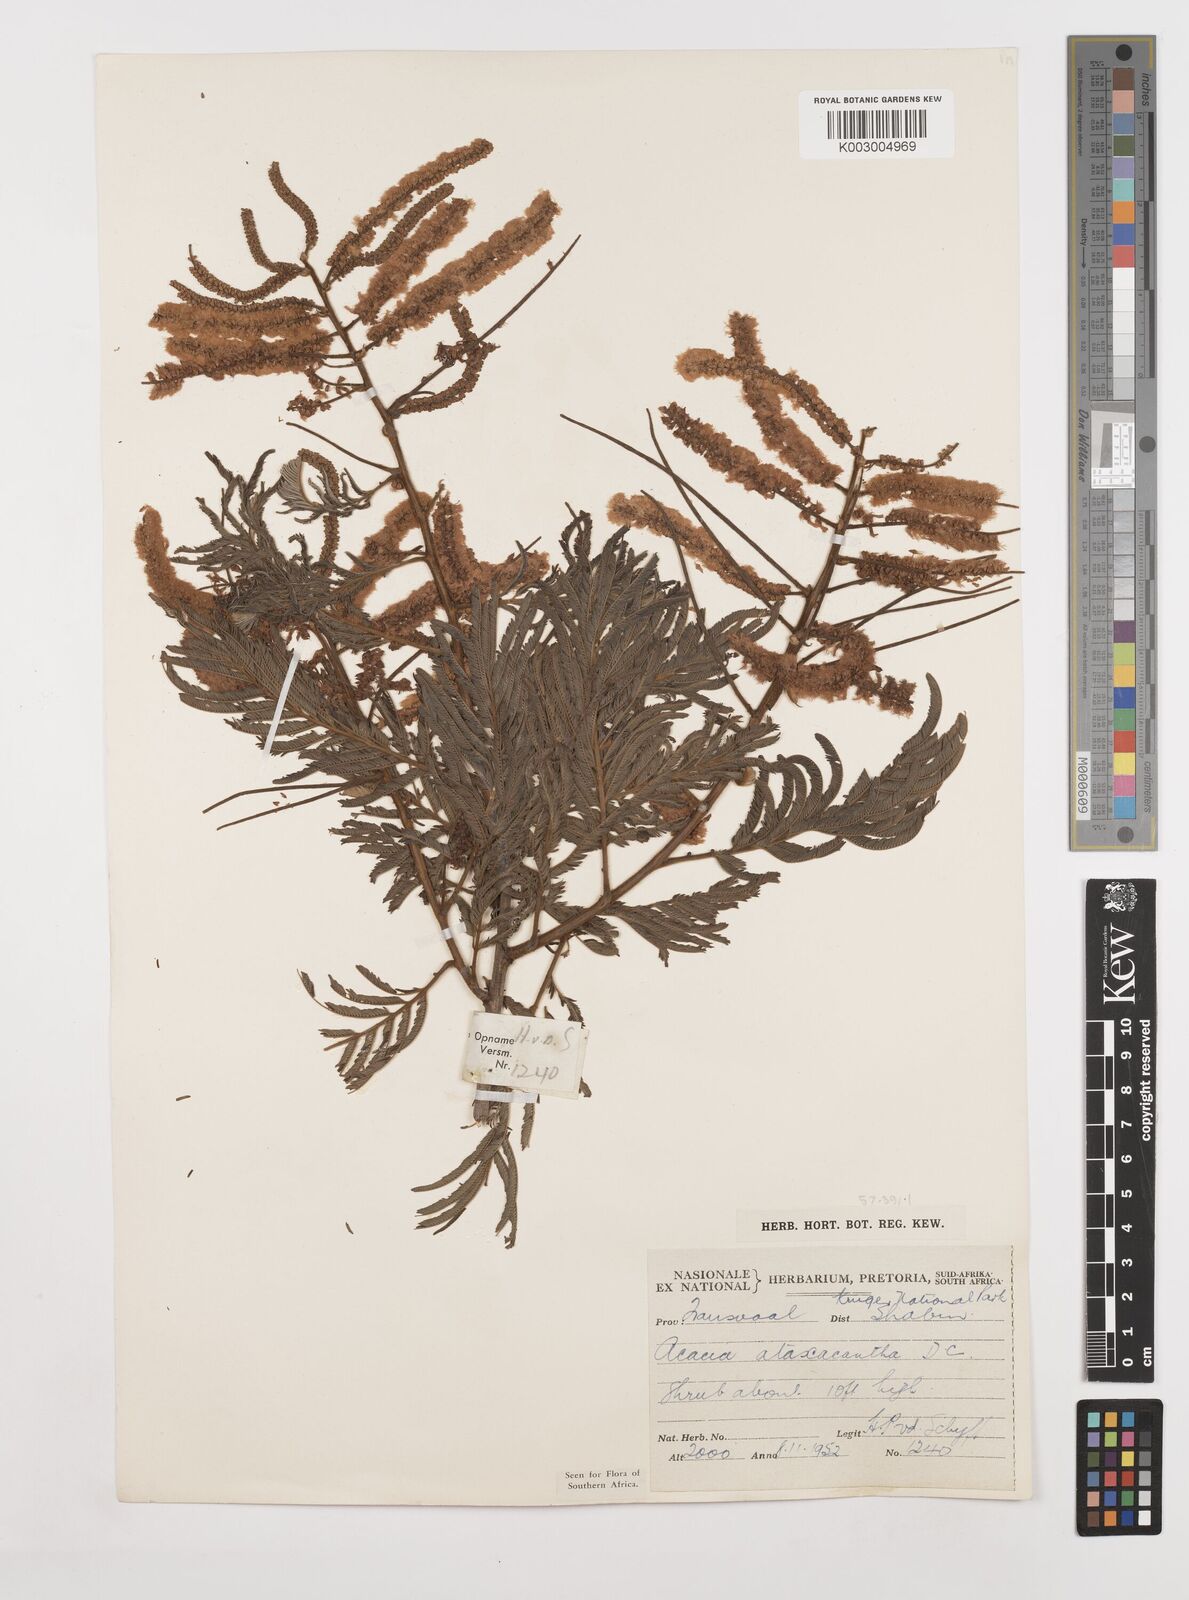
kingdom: Plantae
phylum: Tracheophyta
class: Magnoliopsida
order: Fabales
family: Fabaceae
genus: Senegalia
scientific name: Senegalia ataxacantha
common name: Flame acacia
